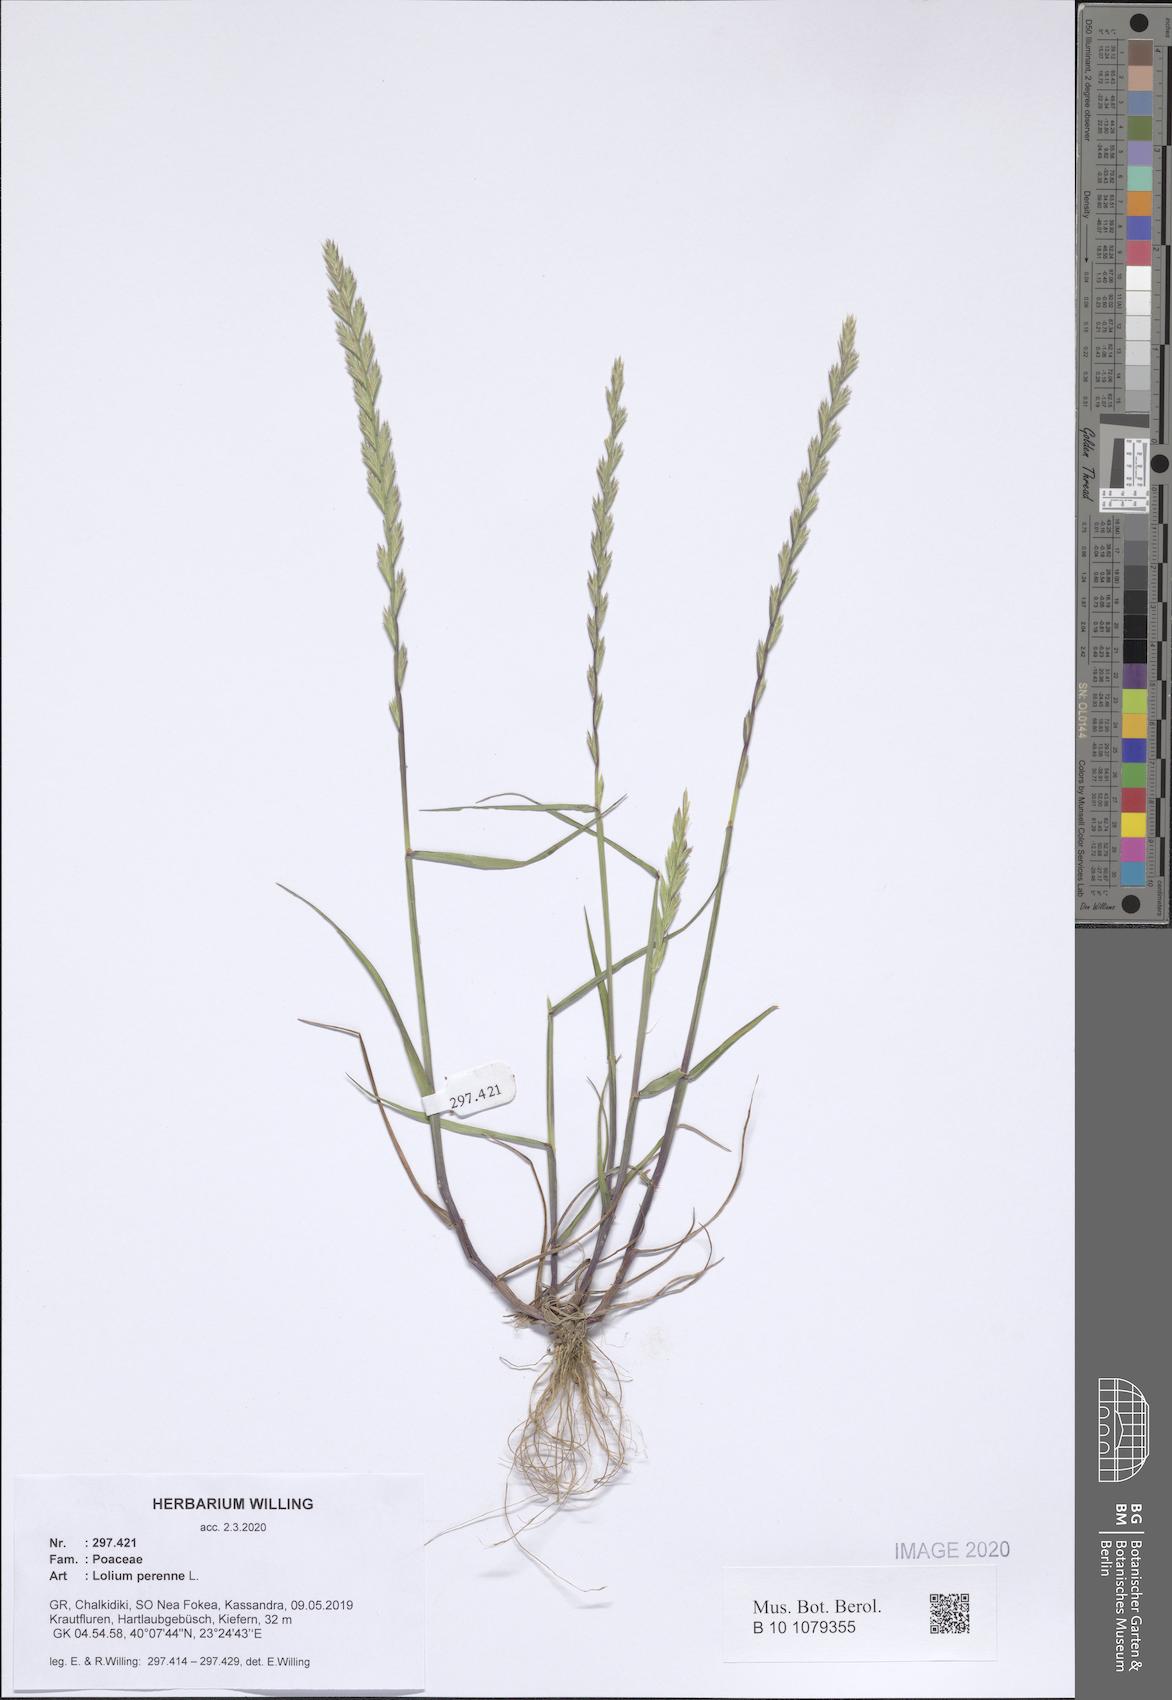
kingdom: Plantae
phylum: Tracheophyta
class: Liliopsida
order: Poales
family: Poaceae
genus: Lolium
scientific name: Lolium perenne
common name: Perennial ryegrass
